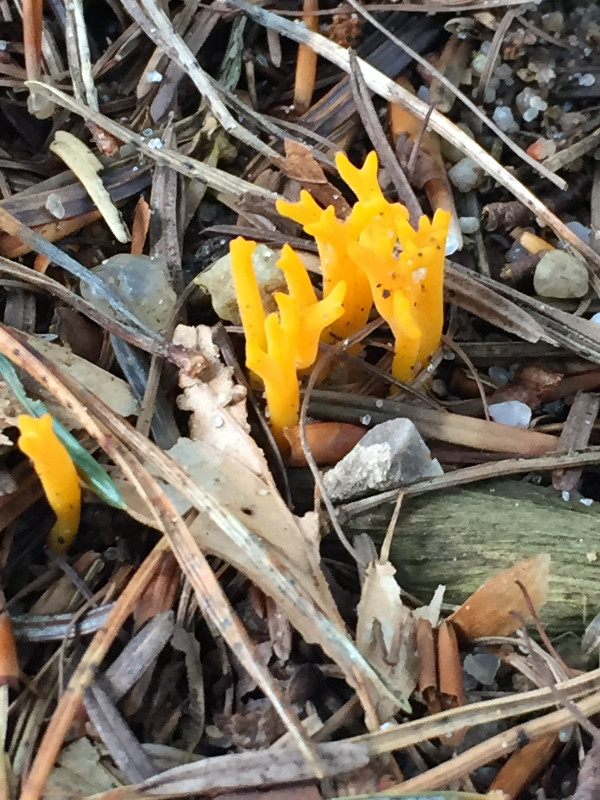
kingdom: Fungi
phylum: Basidiomycota
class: Dacrymycetes
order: Dacrymycetales
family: Dacrymycetaceae
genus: Calocera
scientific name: Calocera viscosa
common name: almindelig guldgaffel
